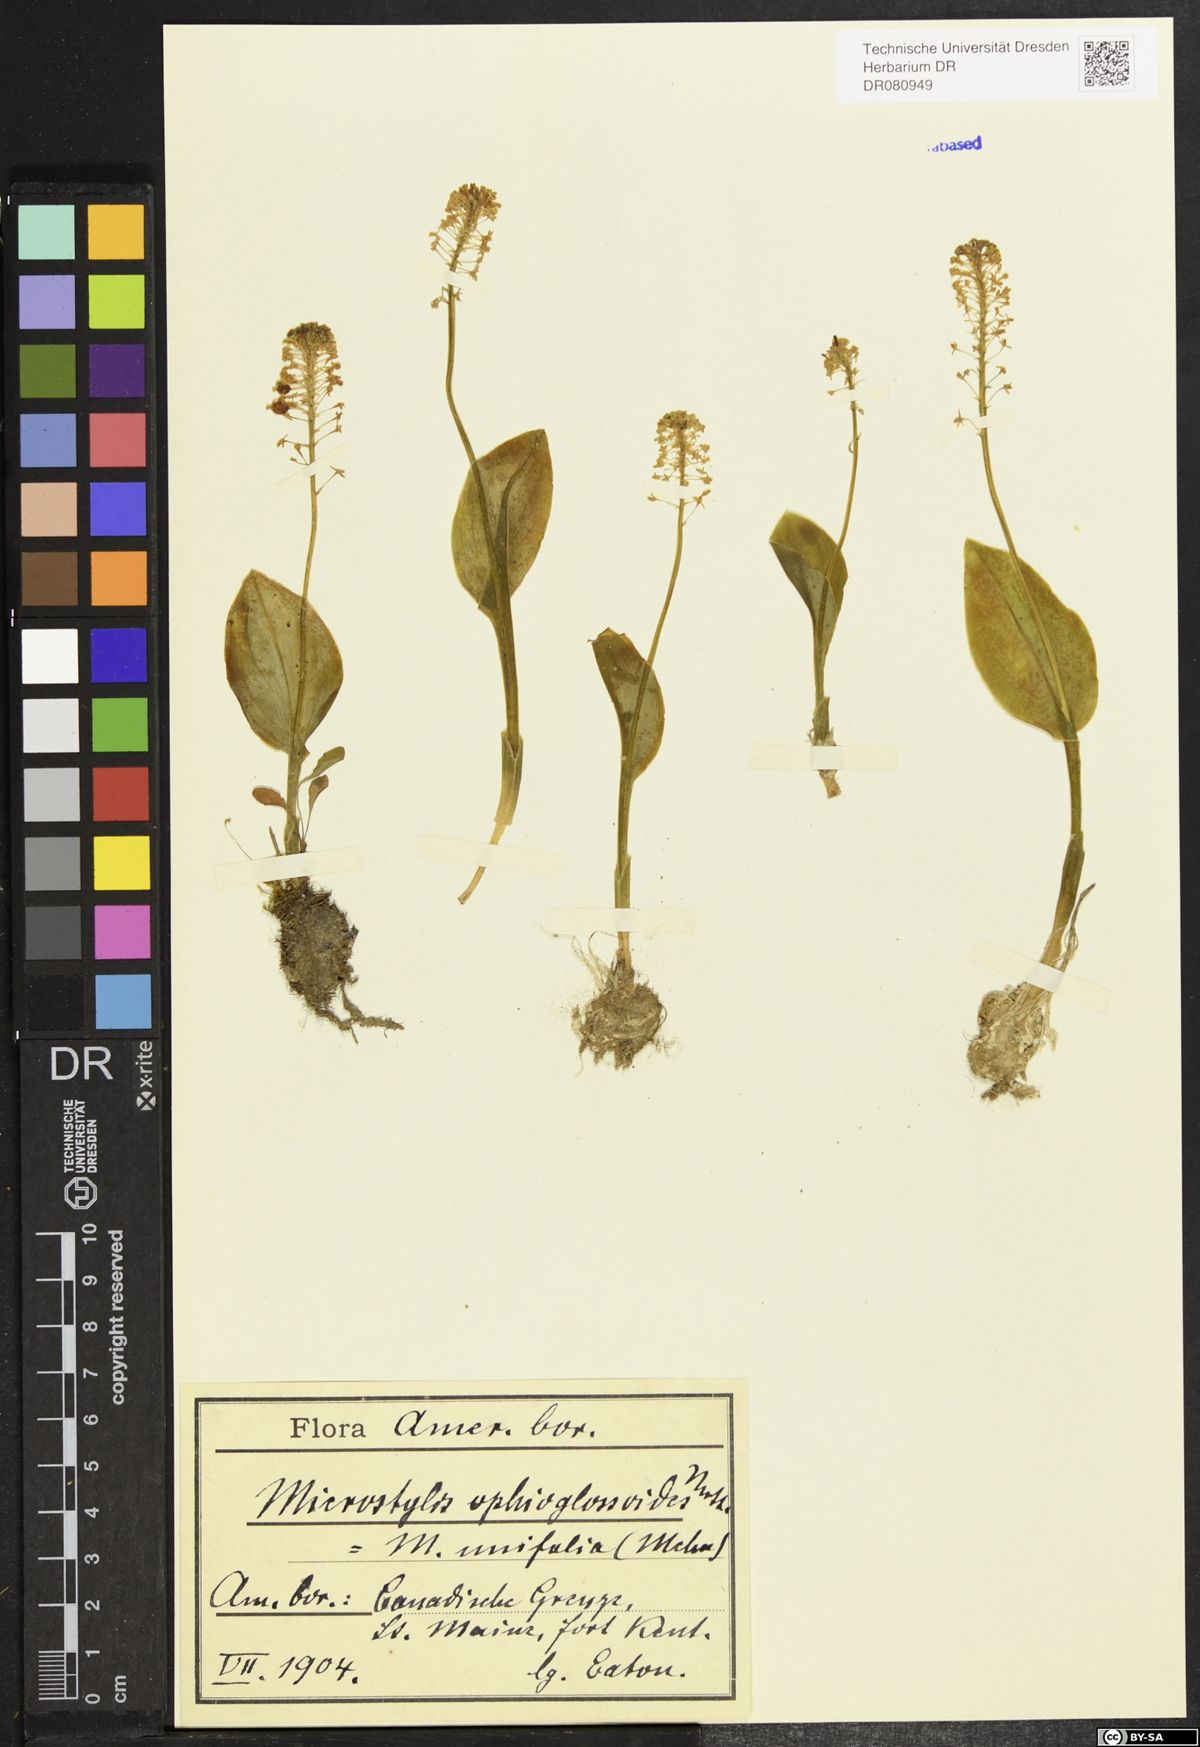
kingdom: Plantae
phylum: Tracheophyta
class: Liliopsida
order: Asparagales
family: Orchidaceae
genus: Neottia
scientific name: Neottia nidus-avis
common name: Bird's-nest orchid
